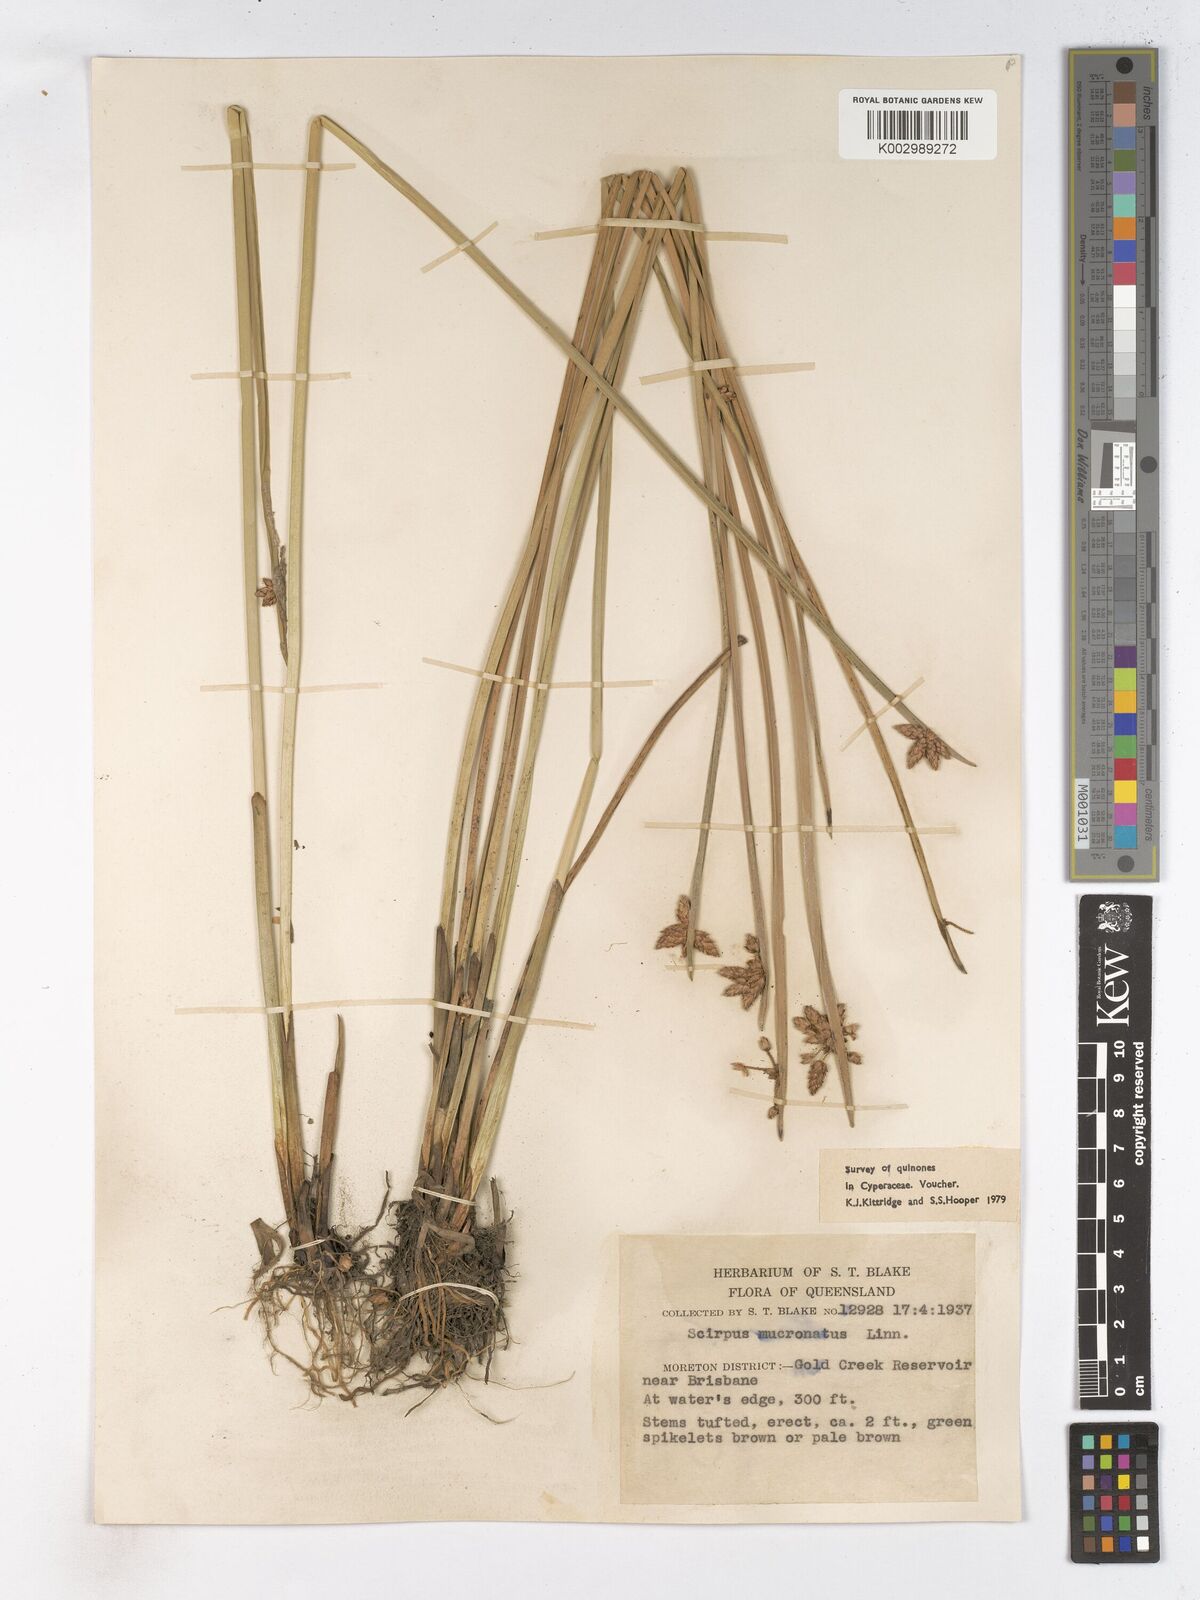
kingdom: Plantae
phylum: Tracheophyta
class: Liliopsida
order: Poales
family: Cyperaceae
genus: Schoenoplectiella
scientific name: Schoenoplectiella mucronata
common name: Bog bulrush
